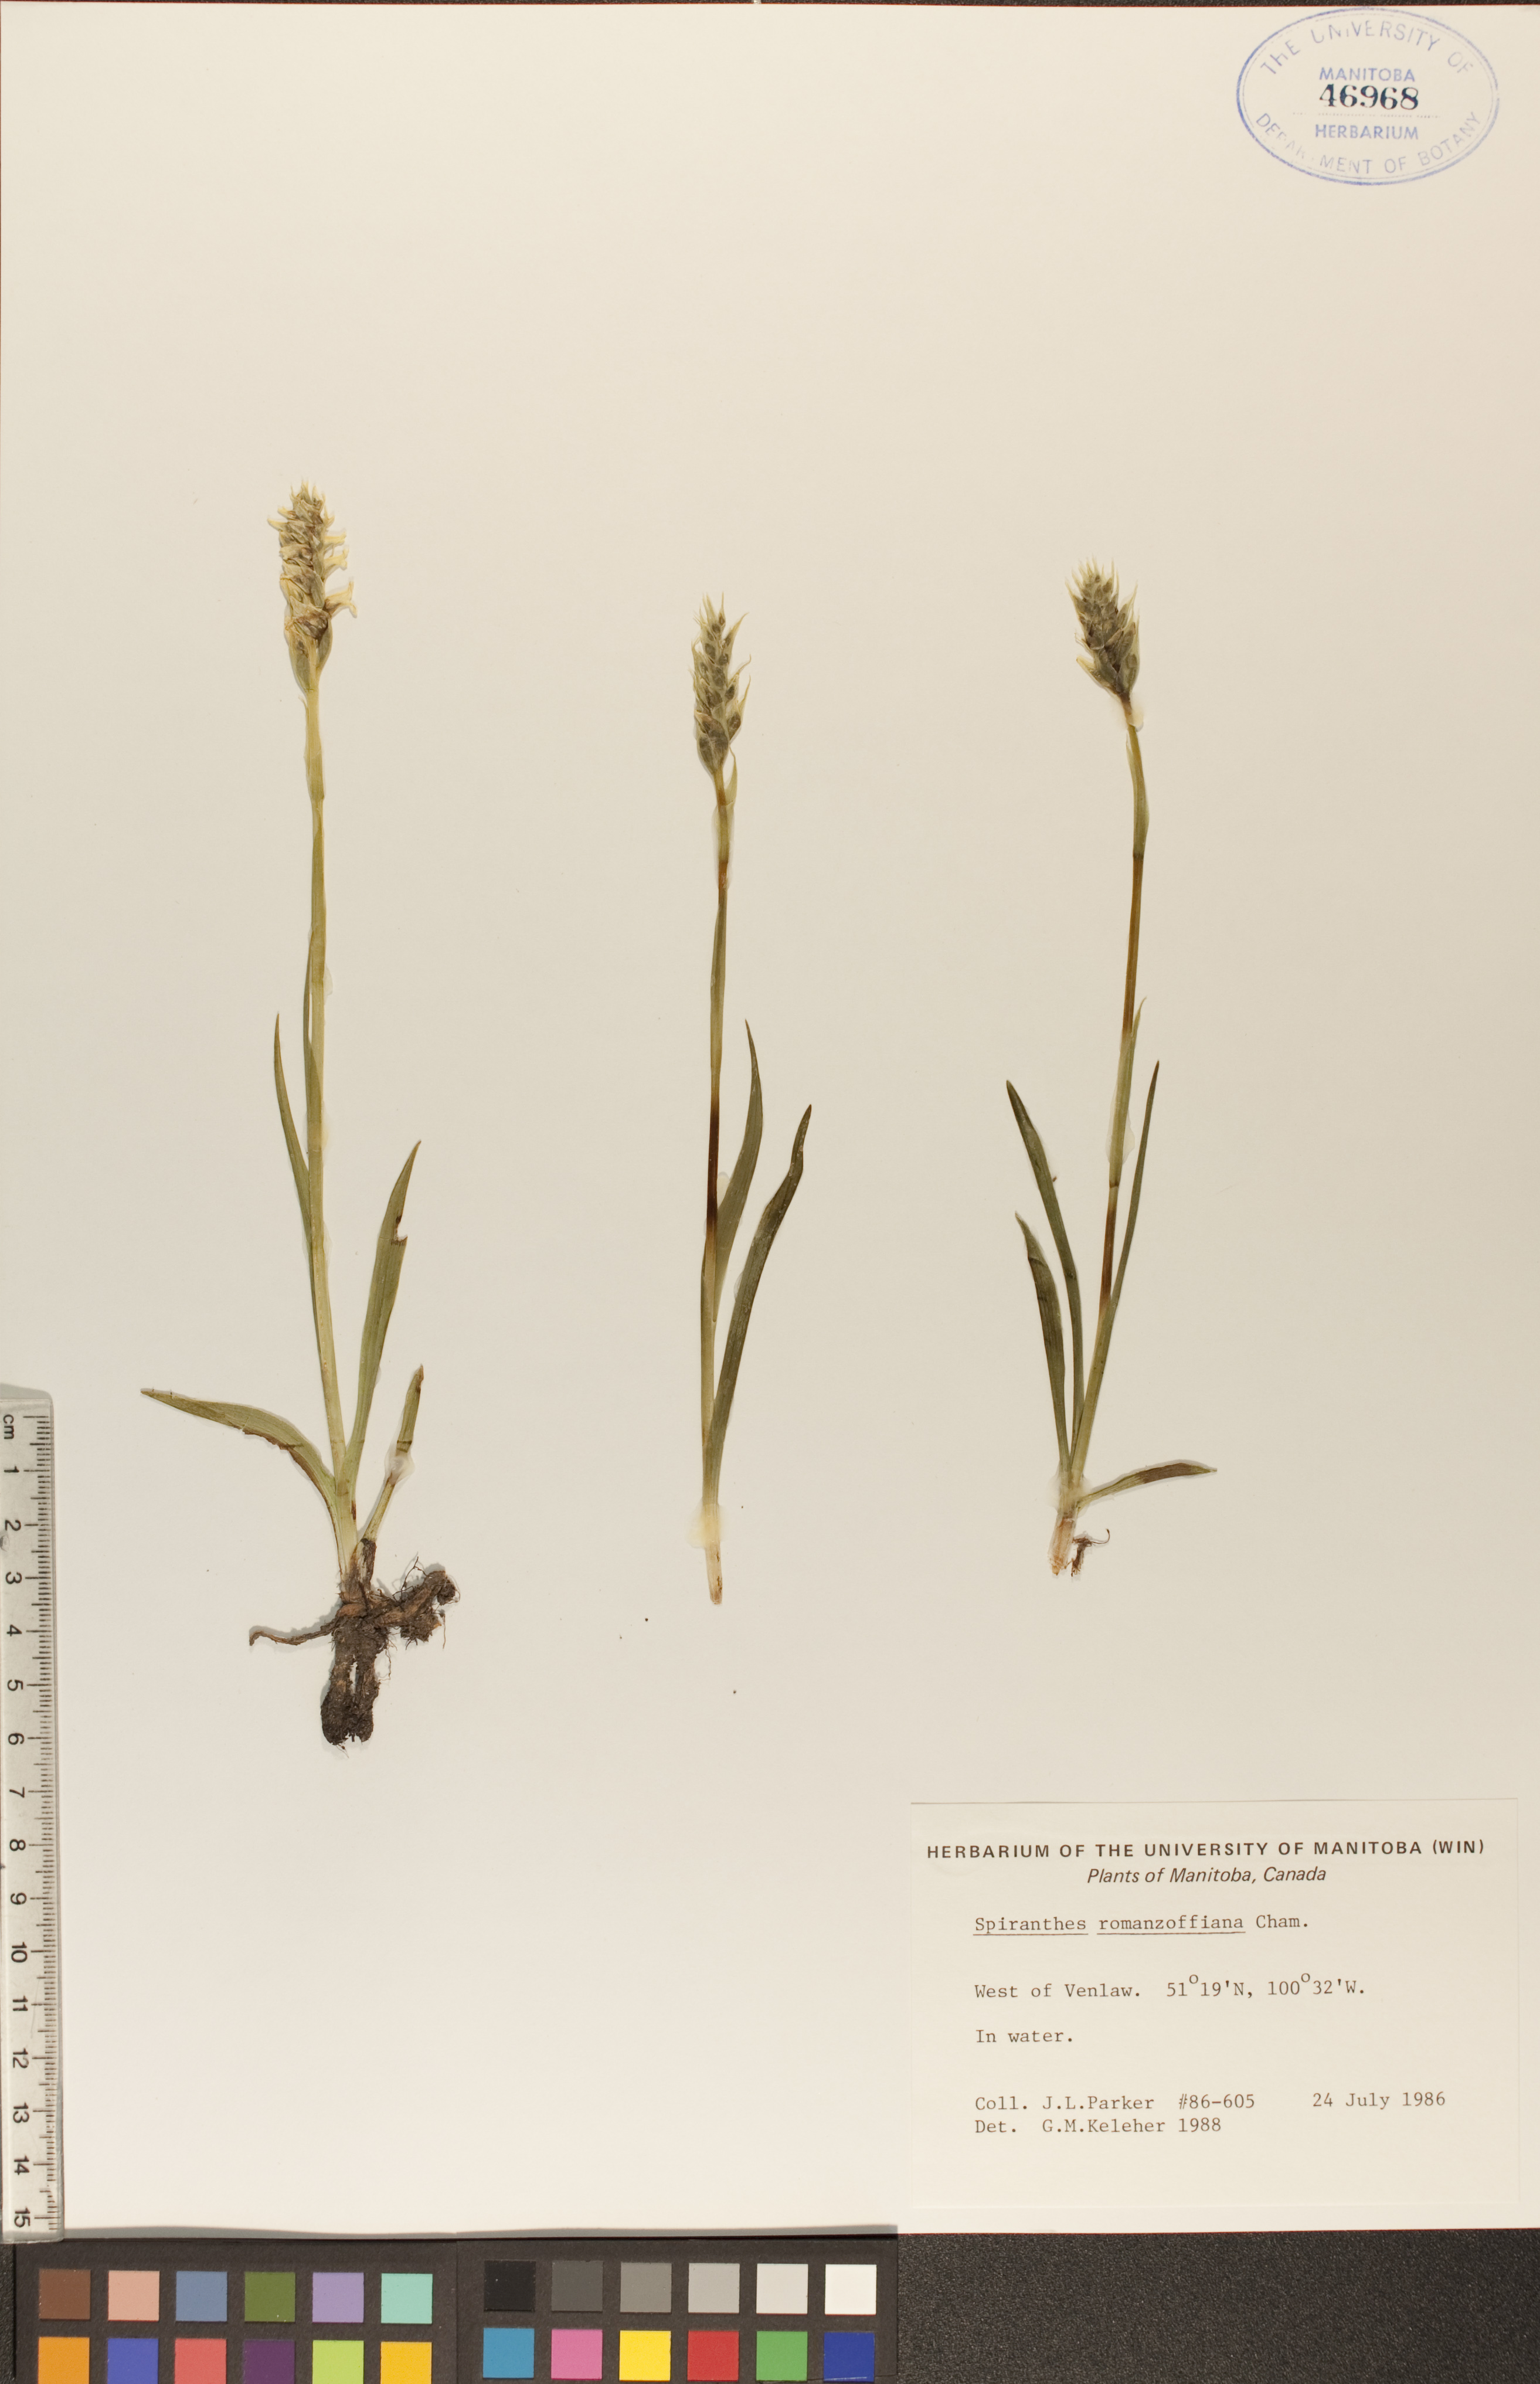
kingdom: Plantae
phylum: Tracheophyta
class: Liliopsida
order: Asparagales
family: Orchidaceae
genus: Spiranthes
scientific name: Spiranthes romanzoffiana
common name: Irish lady's-tresses
